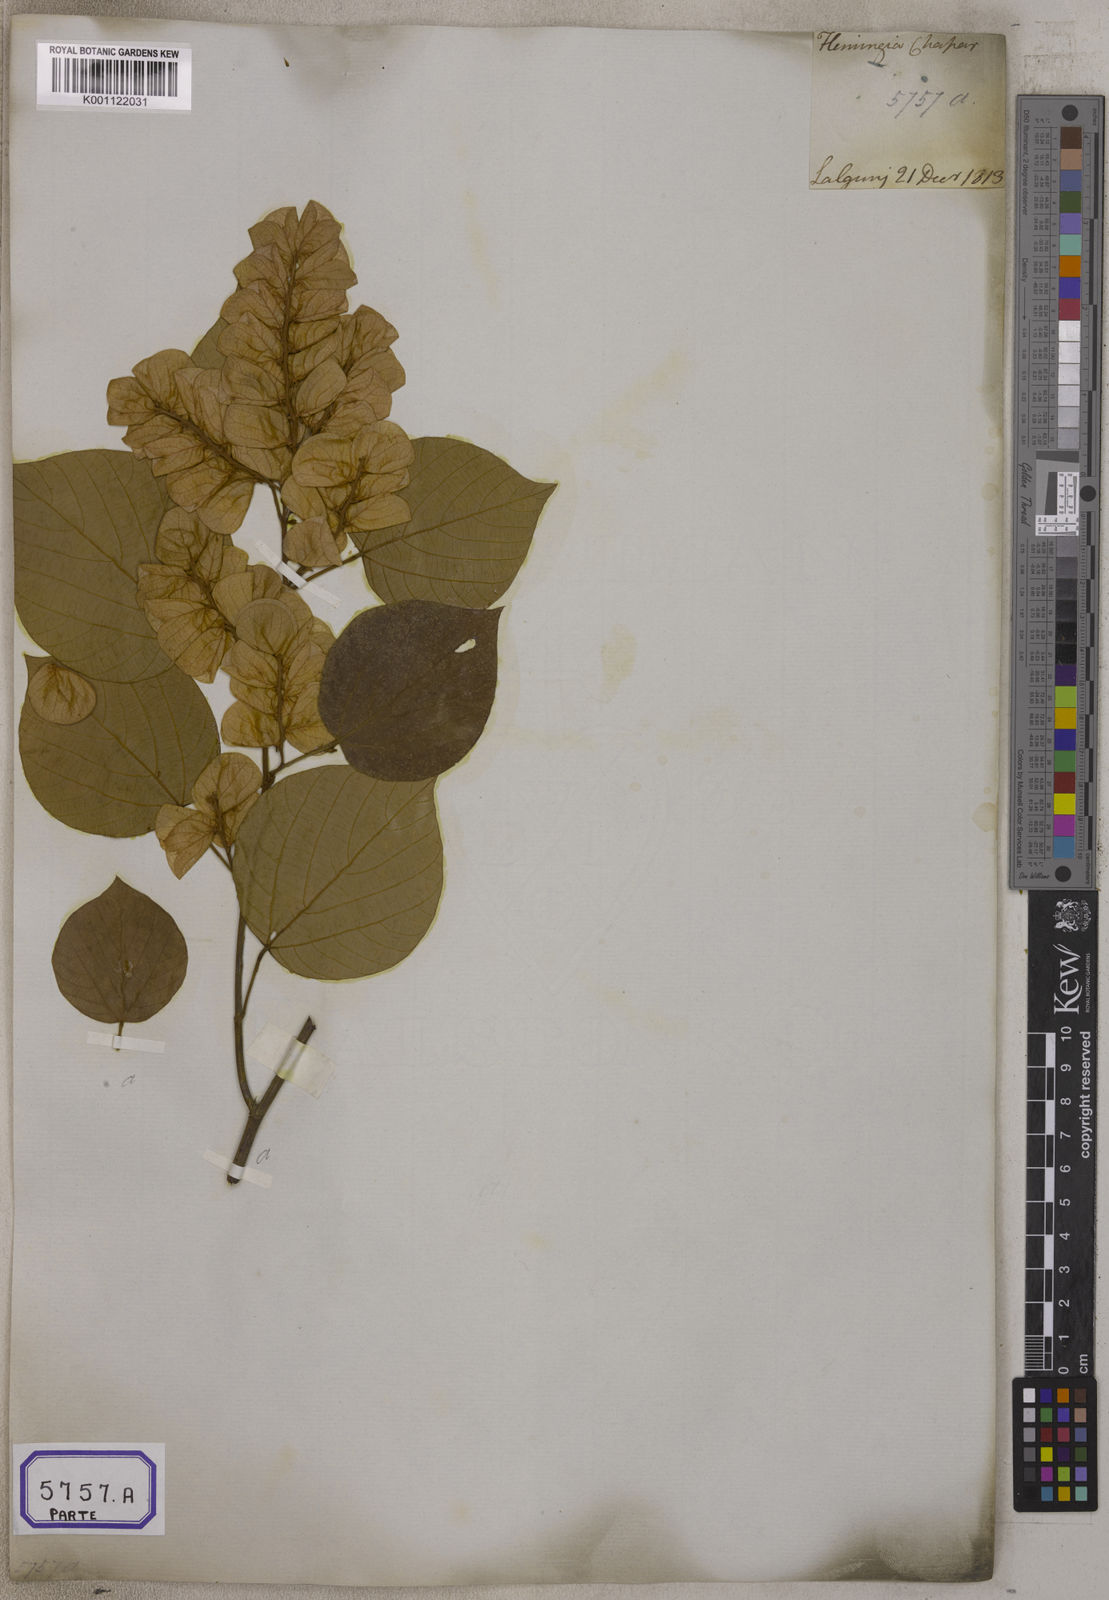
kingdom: Plantae
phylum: Tracheophyta
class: Magnoliopsida
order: Fabales
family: Fabaceae
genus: Flemingia
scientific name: Flemingia
